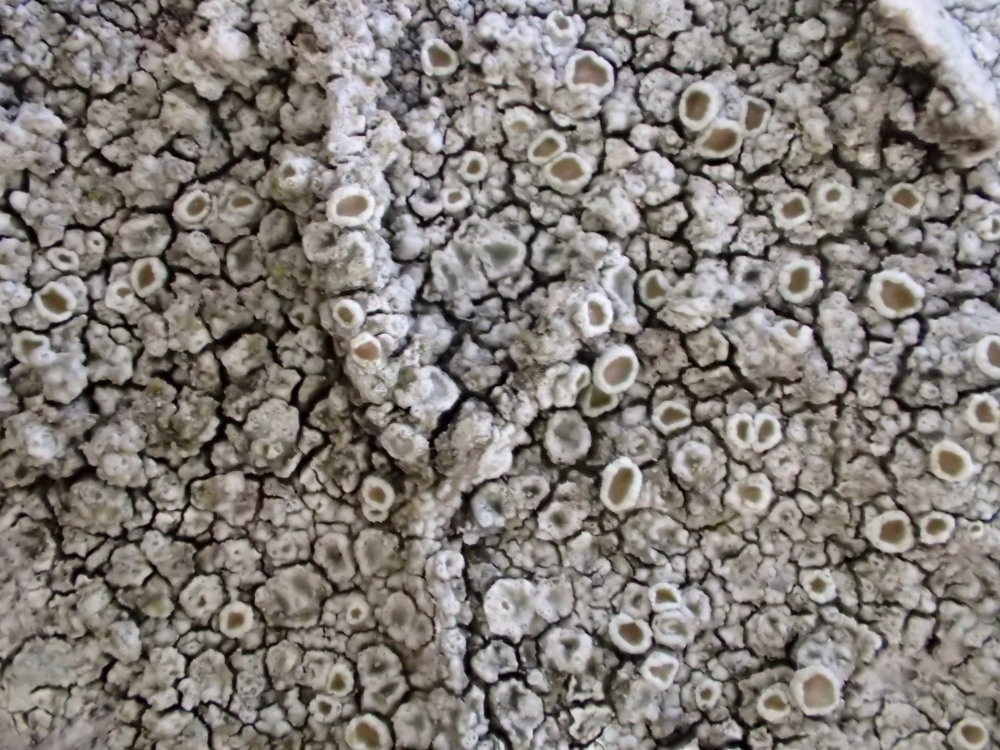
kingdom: Fungi
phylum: Ascomycota
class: Lecanoromycetes
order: Lecanorales
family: Lecanoraceae
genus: Lecanora
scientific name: Lecanora chlarotera
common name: brun kantskivelav
